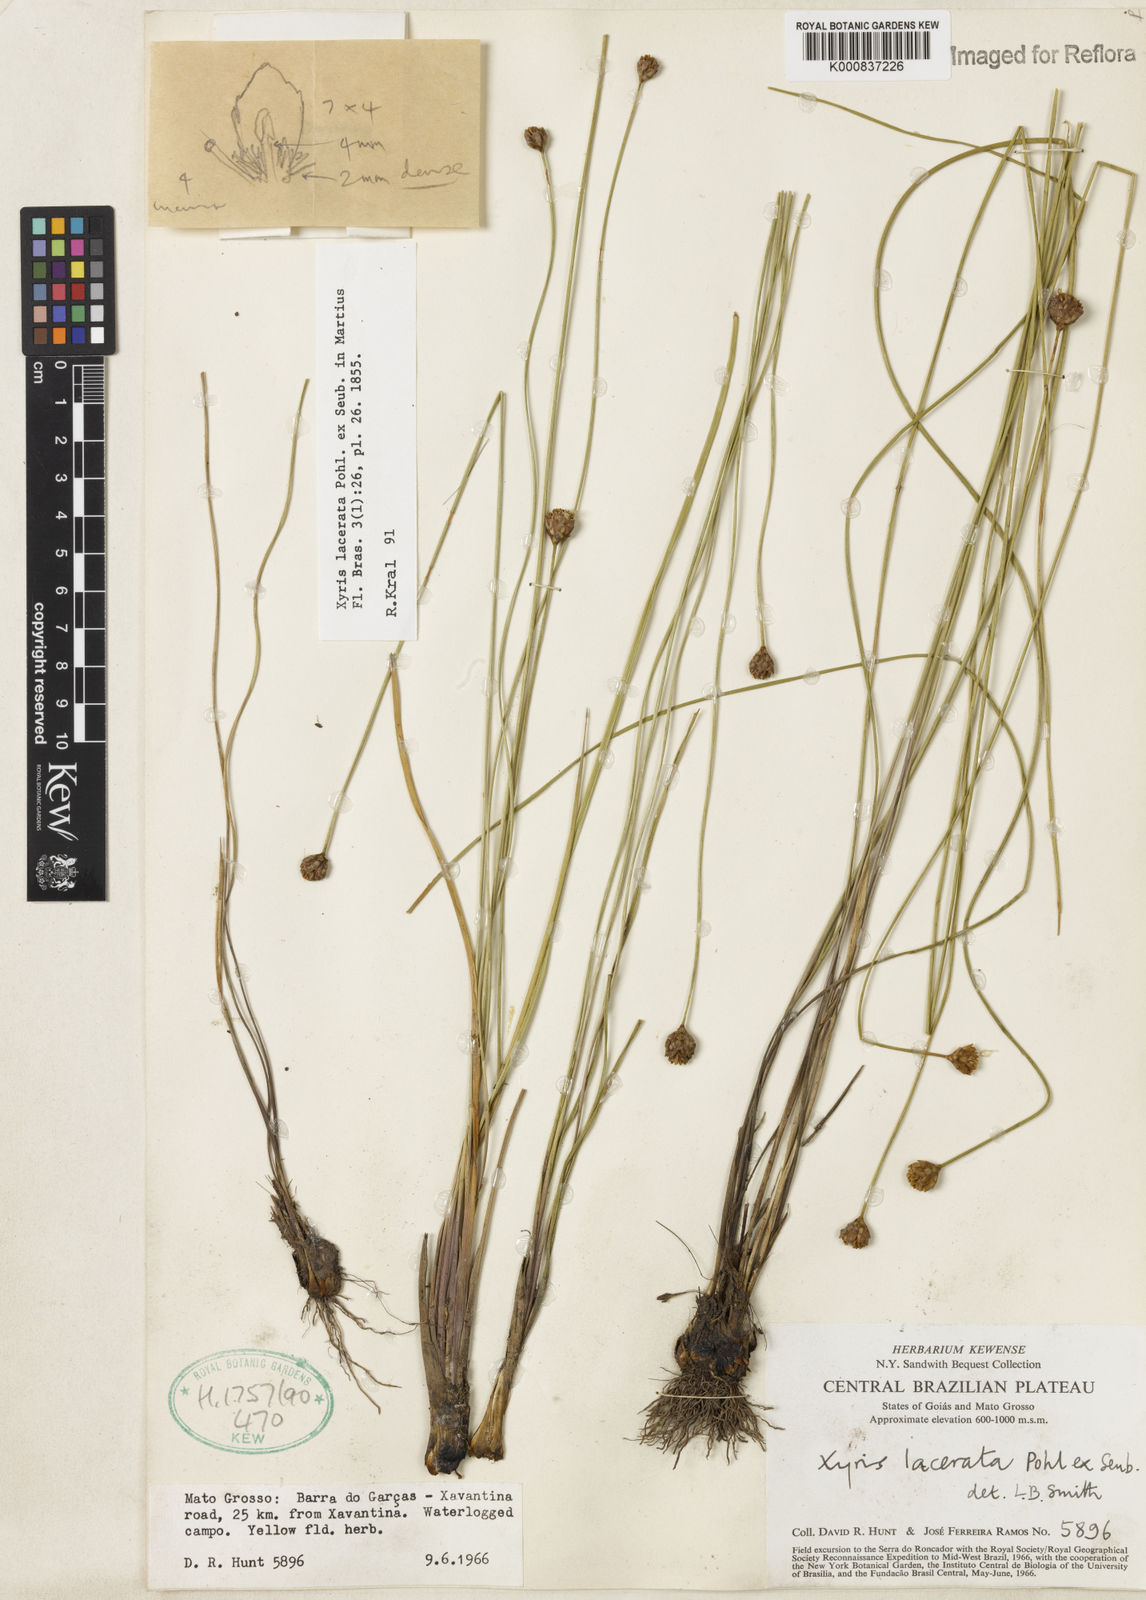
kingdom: Plantae
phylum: Tracheophyta
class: Liliopsida
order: Poales
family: Xyridaceae
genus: Xyris
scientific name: Xyris lacerata
